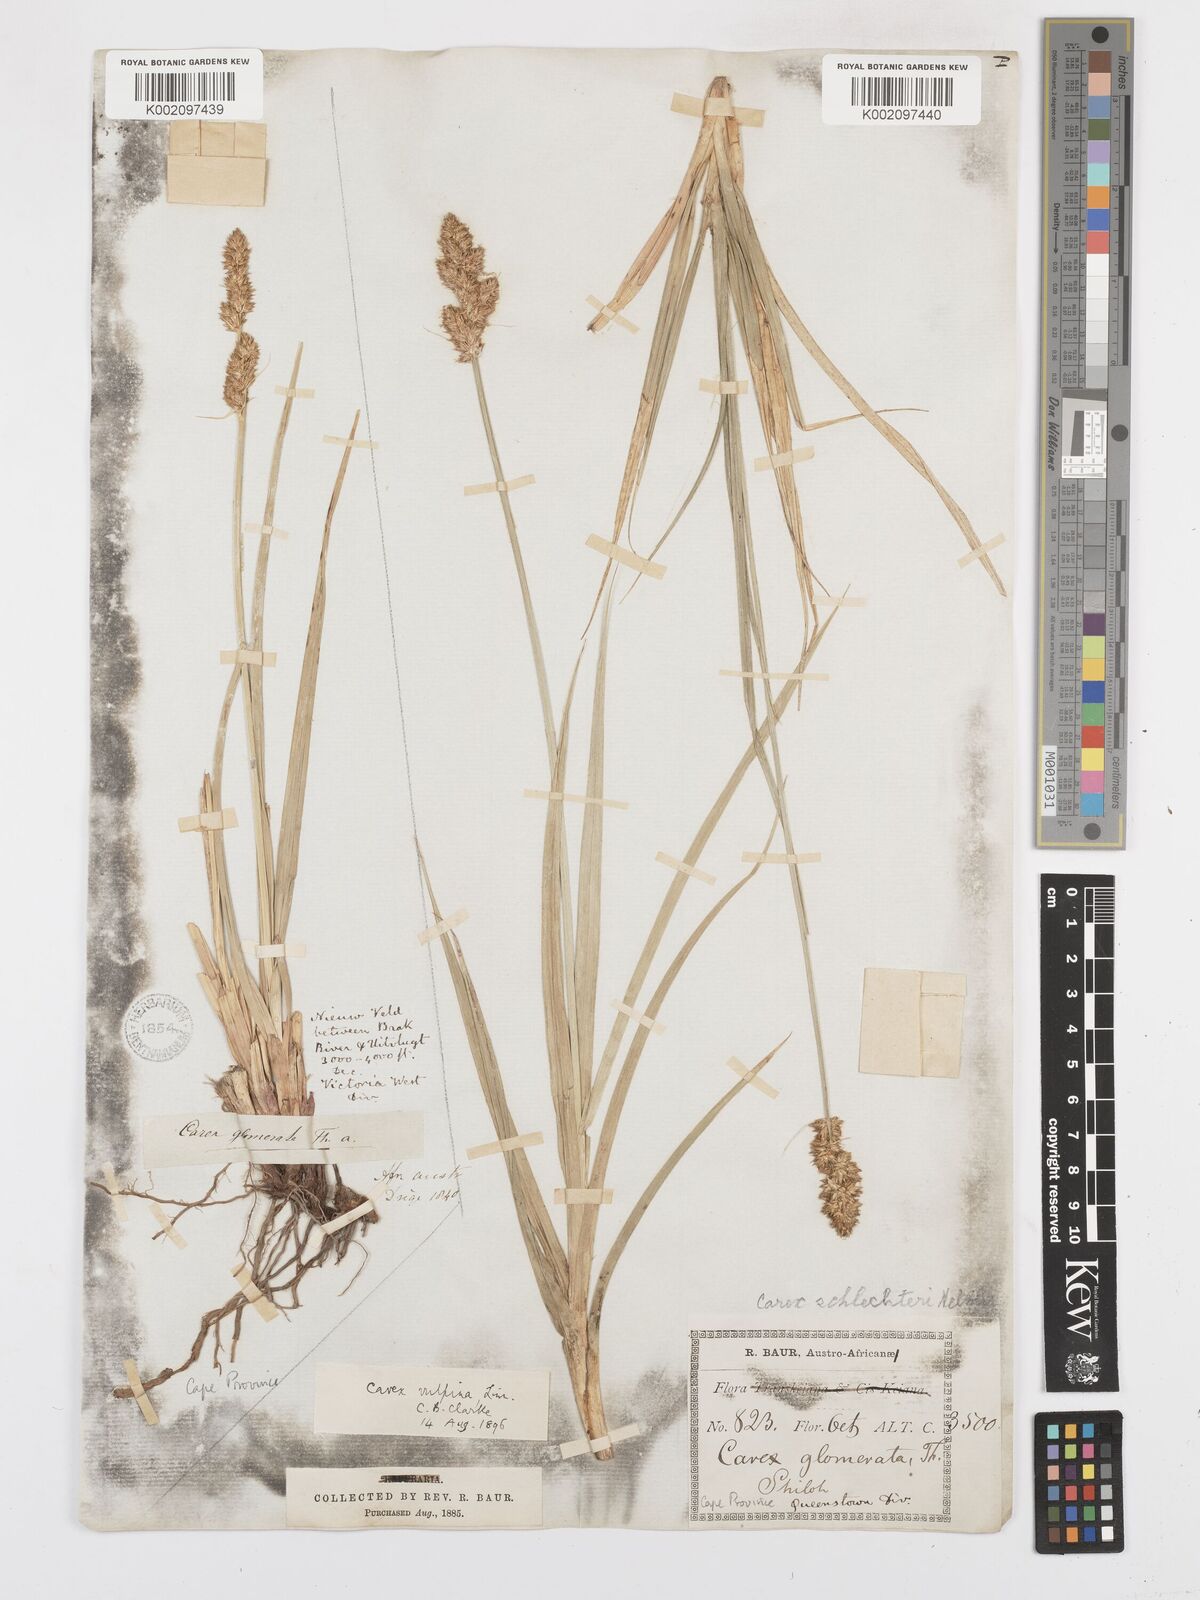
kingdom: Plantae
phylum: Tracheophyta
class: Liliopsida
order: Poales
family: Cyperaceae
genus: Carex
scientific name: Carex glomerata
